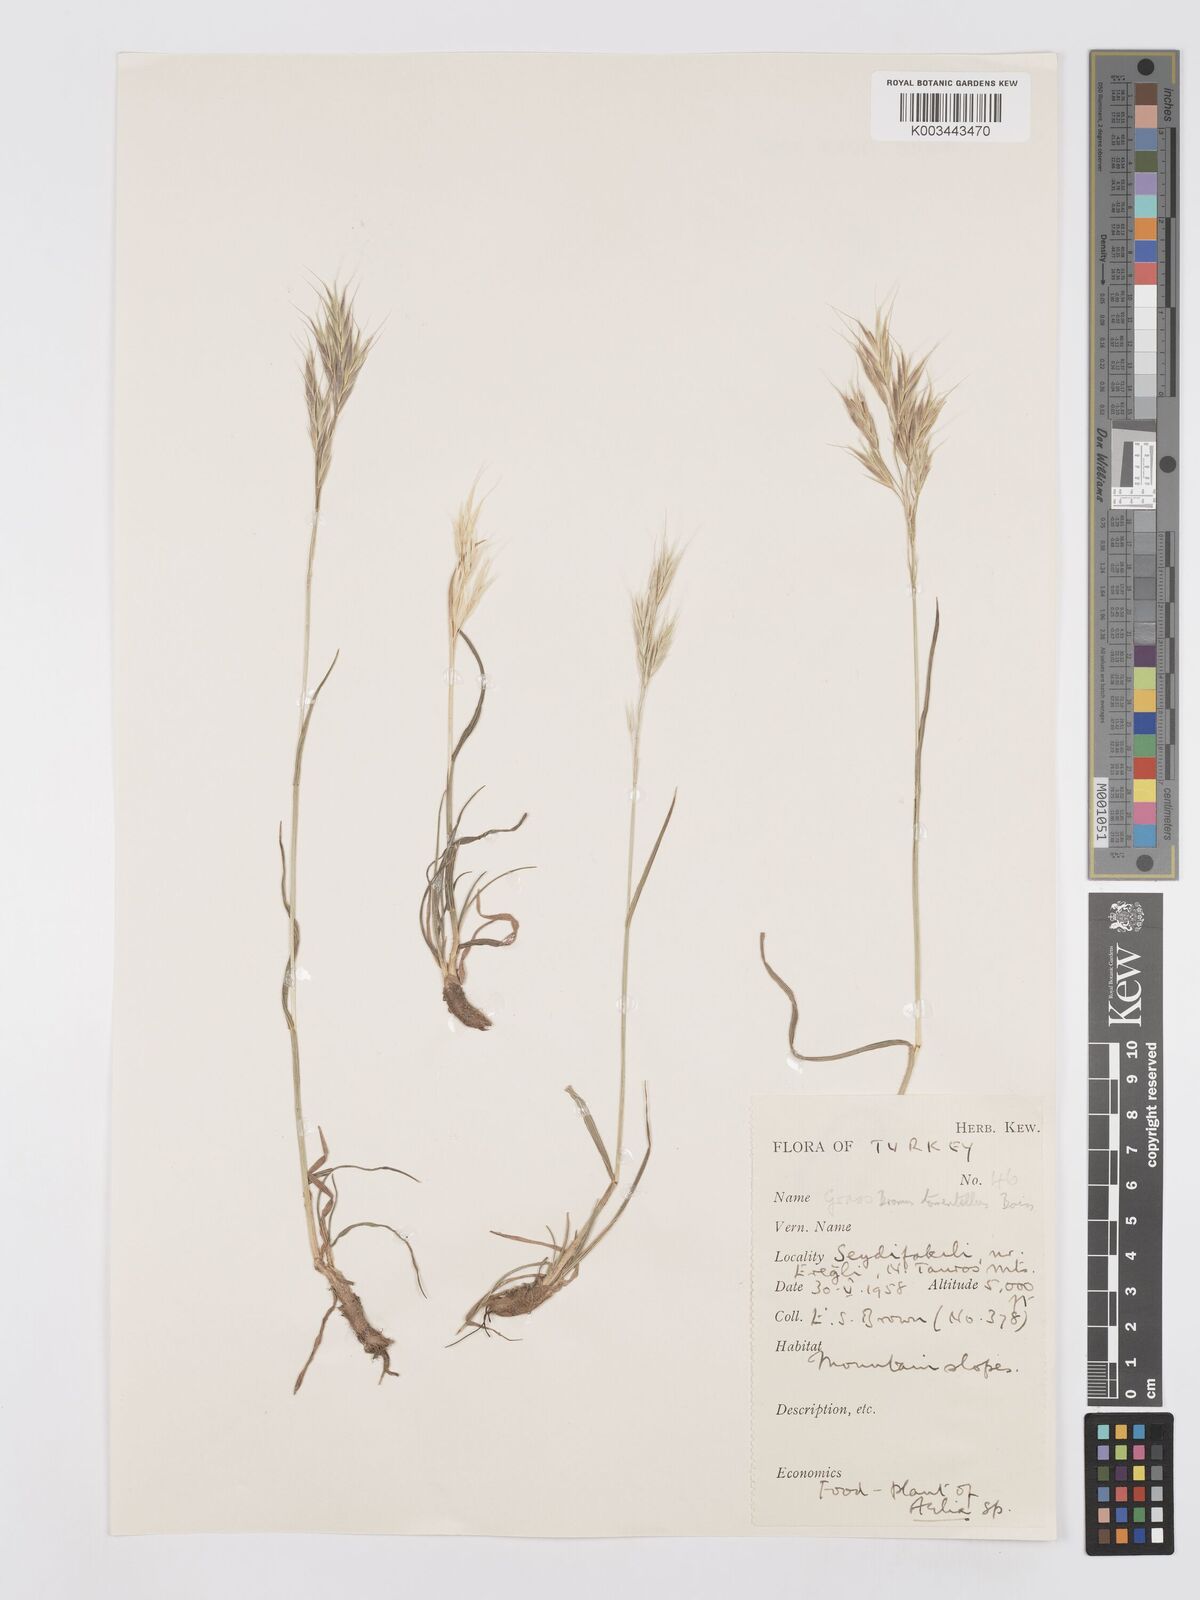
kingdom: Plantae
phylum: Tracheophyta
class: Liliopsida
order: Poales
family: Poaceae
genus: Bromus
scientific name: Bromus tomentellus
